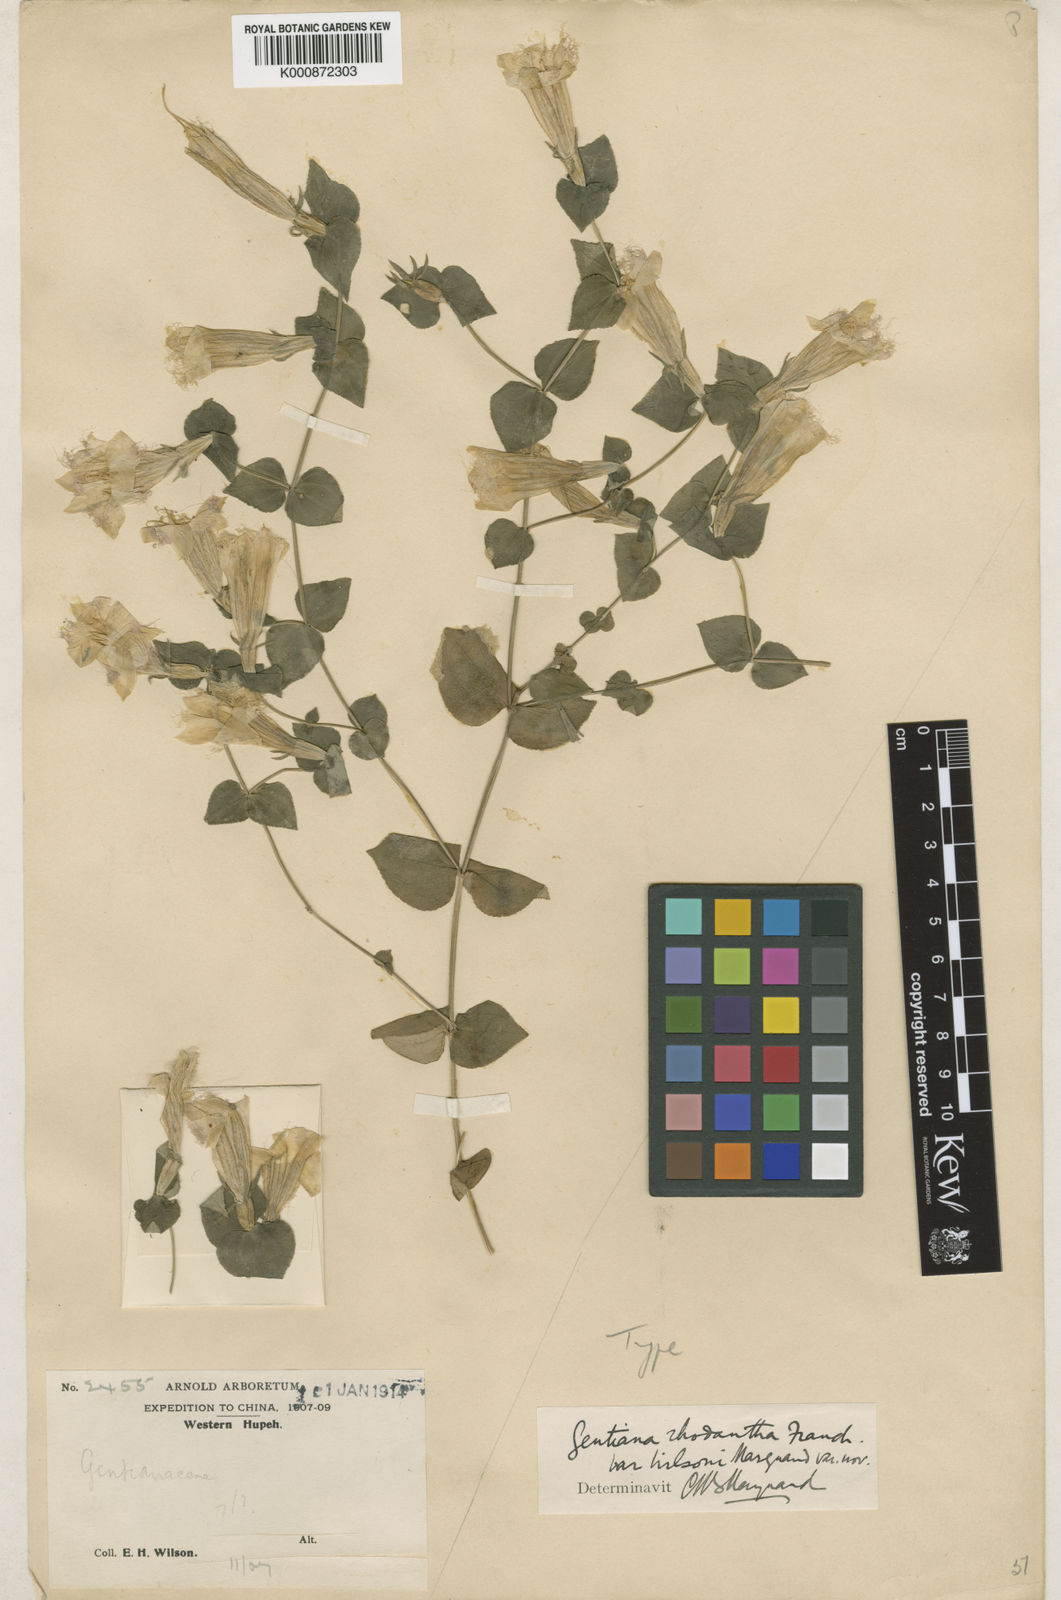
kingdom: Plantae
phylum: Tracheophyta
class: Magnoliopsida
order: Gentianales
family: Gentianaceae
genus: Metagentiana
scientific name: Metagentiana
